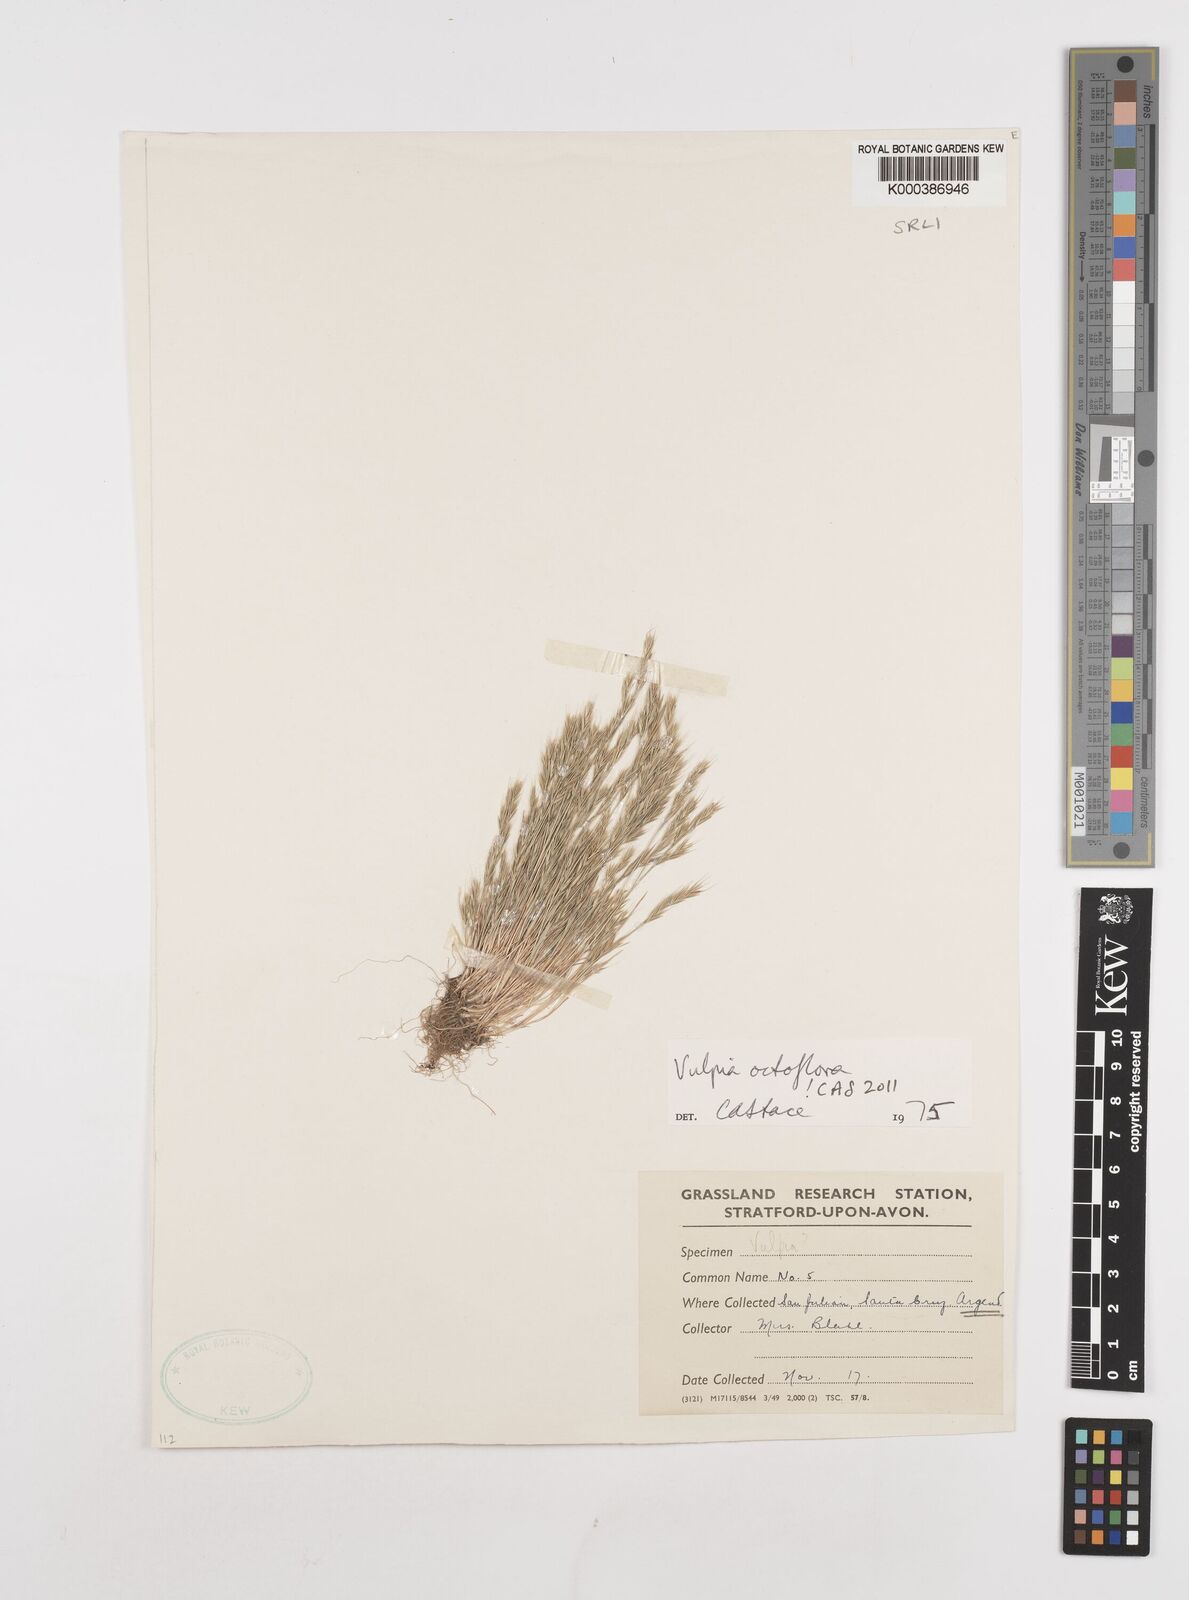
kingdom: Plantae
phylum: Tracheophyta
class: Liliopsida
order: Poales
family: Poaceae
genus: Festuca
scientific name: Festuca octoflora
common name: Sixweeks grass
